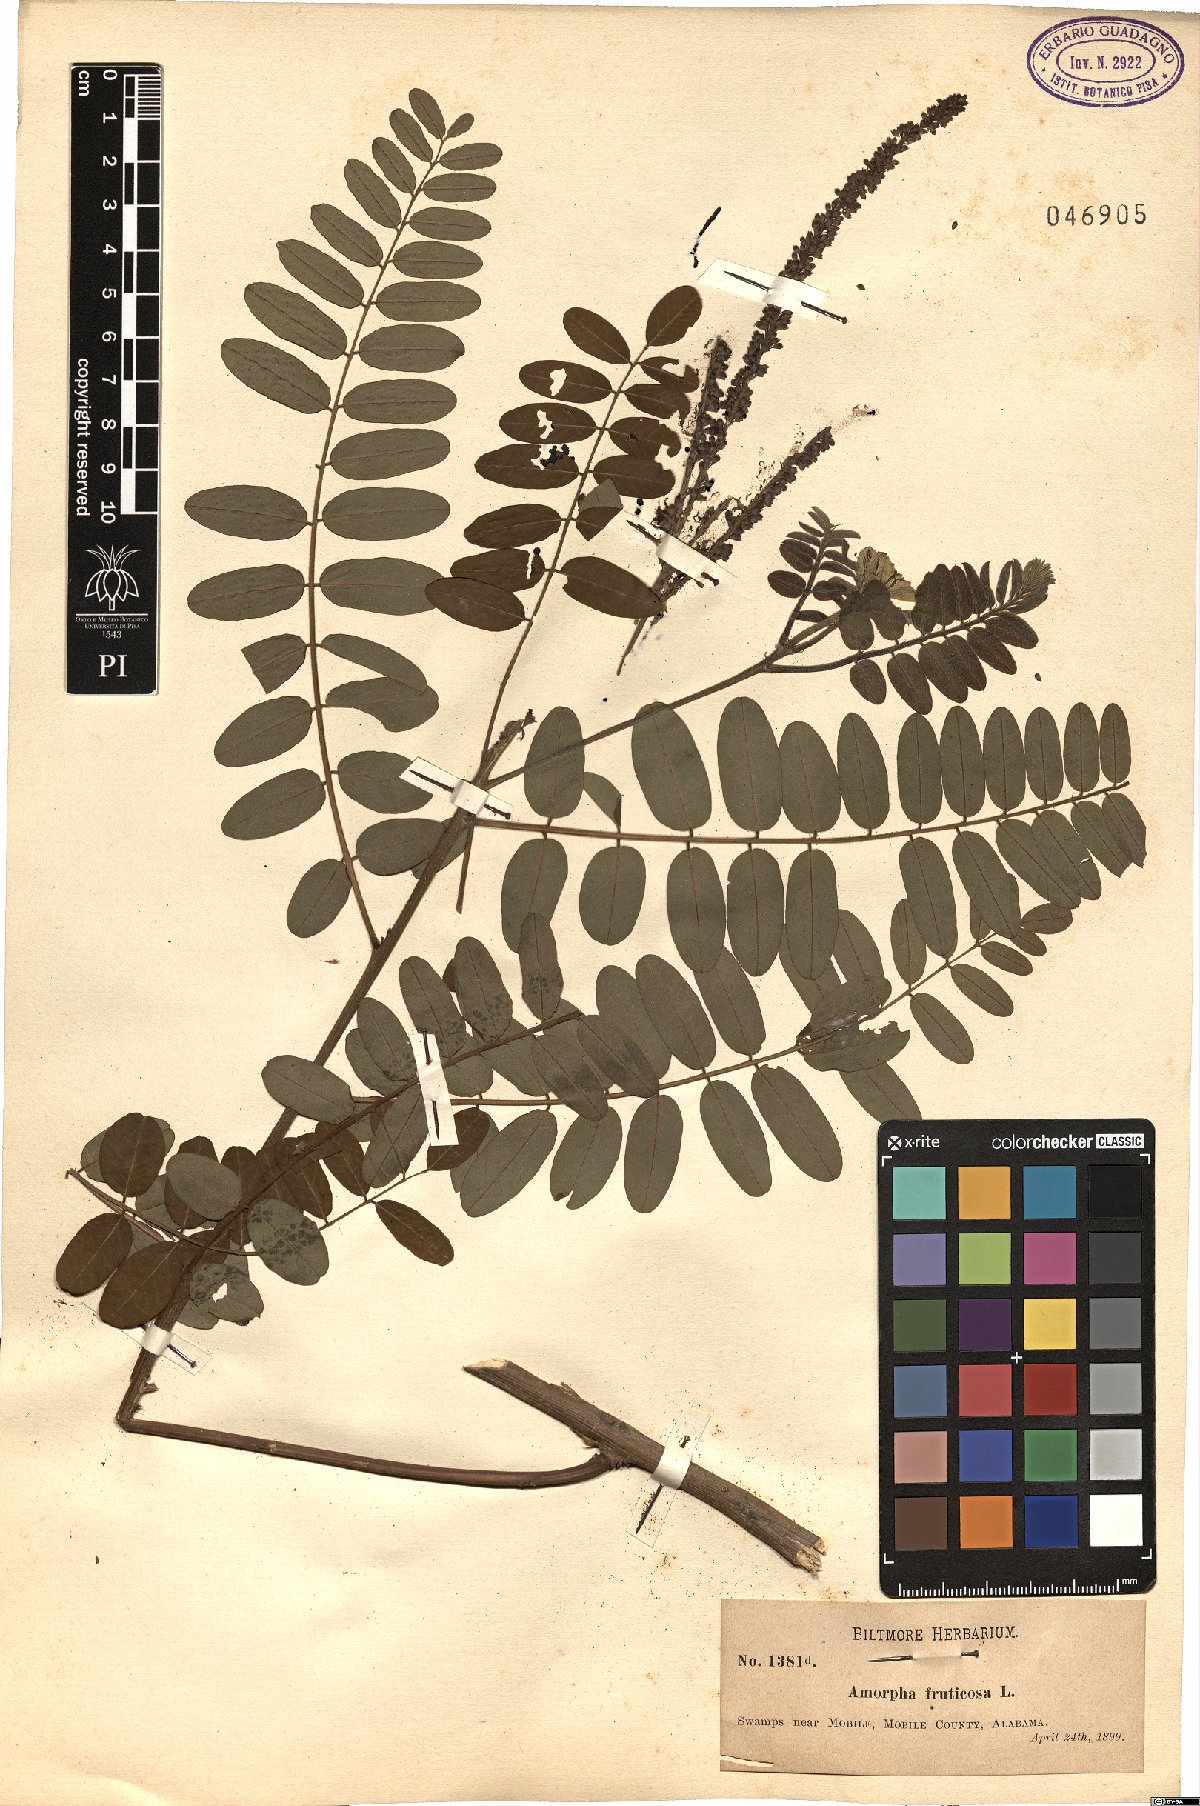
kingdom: Plantae
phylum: Tracheophyta
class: Magnoliopsida
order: Fabales
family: Fabaceae
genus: Amorpha
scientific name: Amorpha fruticosa
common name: False indigo
